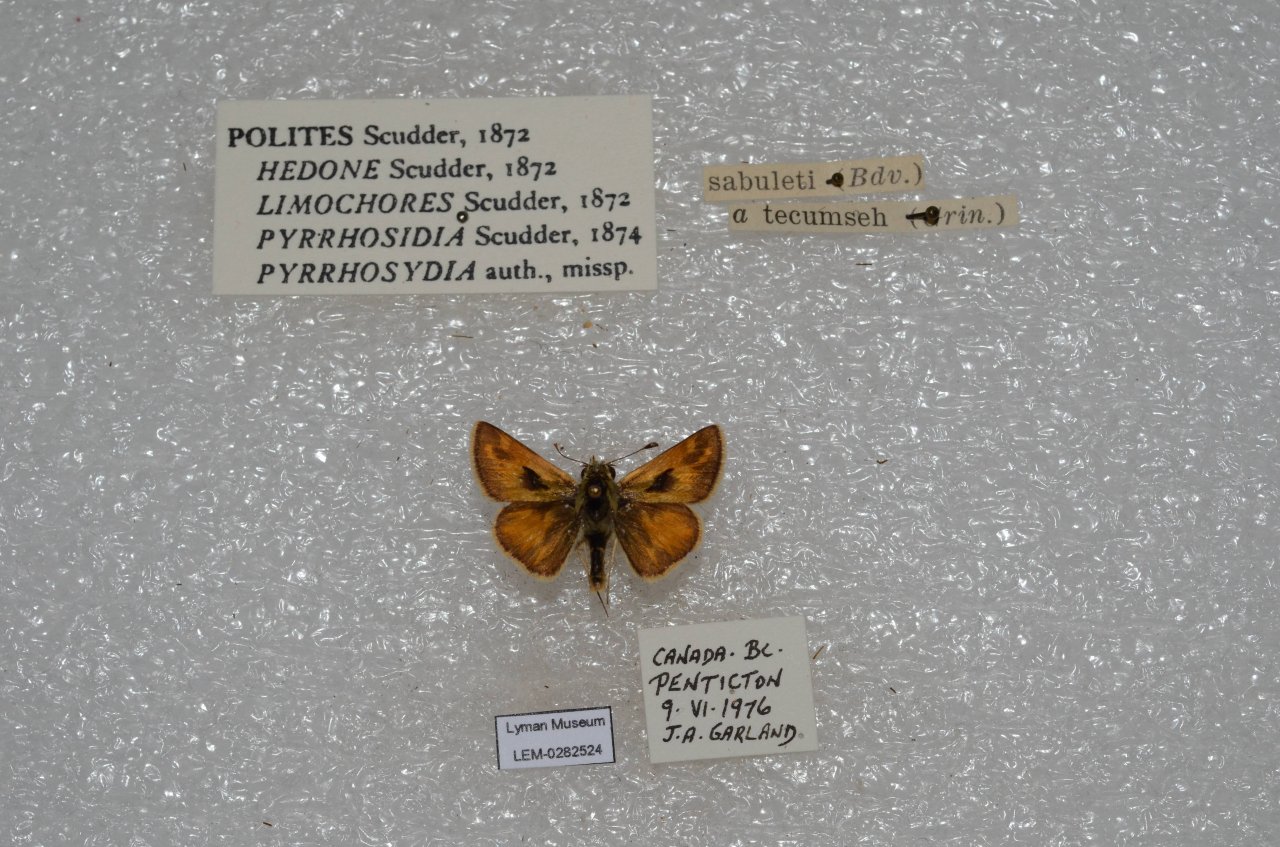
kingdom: Animalia
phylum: Arthropoda
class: Insecta
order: Lepidoptera
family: Hesperiidae
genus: Polites
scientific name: Polites sabuleti
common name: Sandhill Skipper
